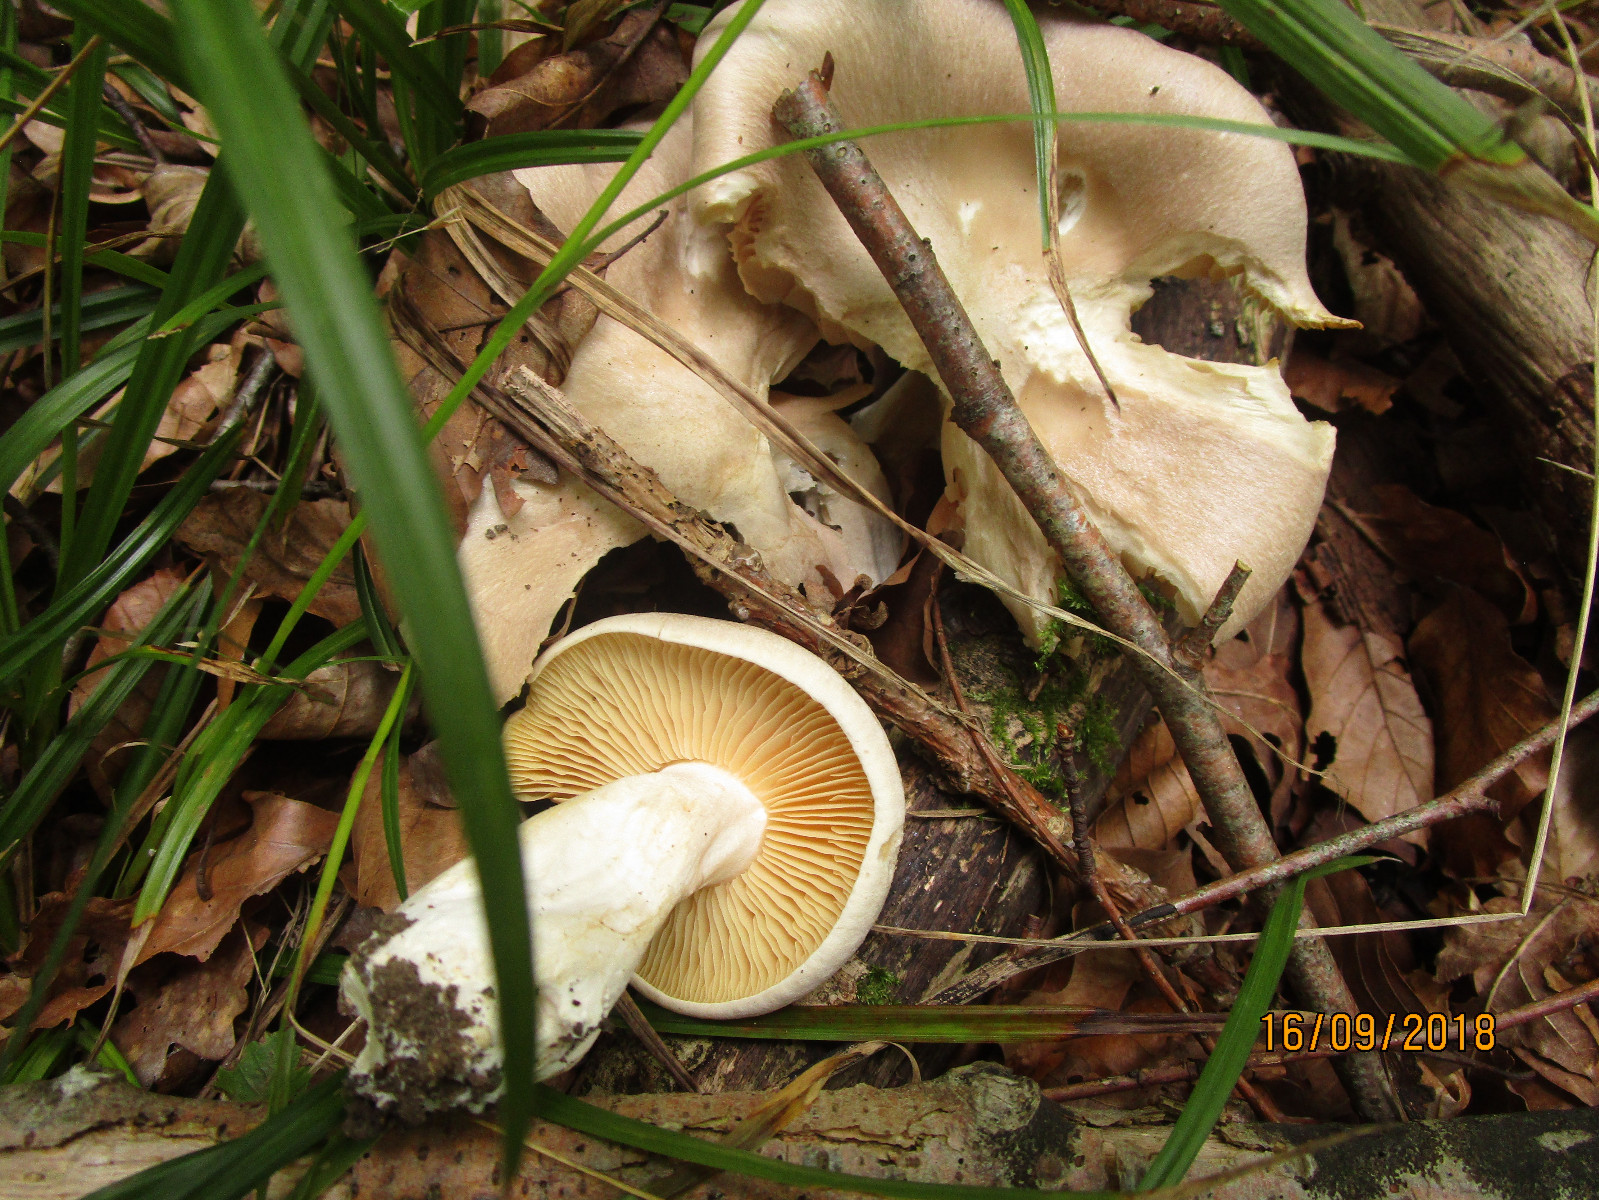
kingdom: Fungi
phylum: Basidiomycota
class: Agaricomycetes
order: Agaricales
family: Entolomataceae
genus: Entoloma
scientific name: Entoloma sinuatum
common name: giftig rødblad
